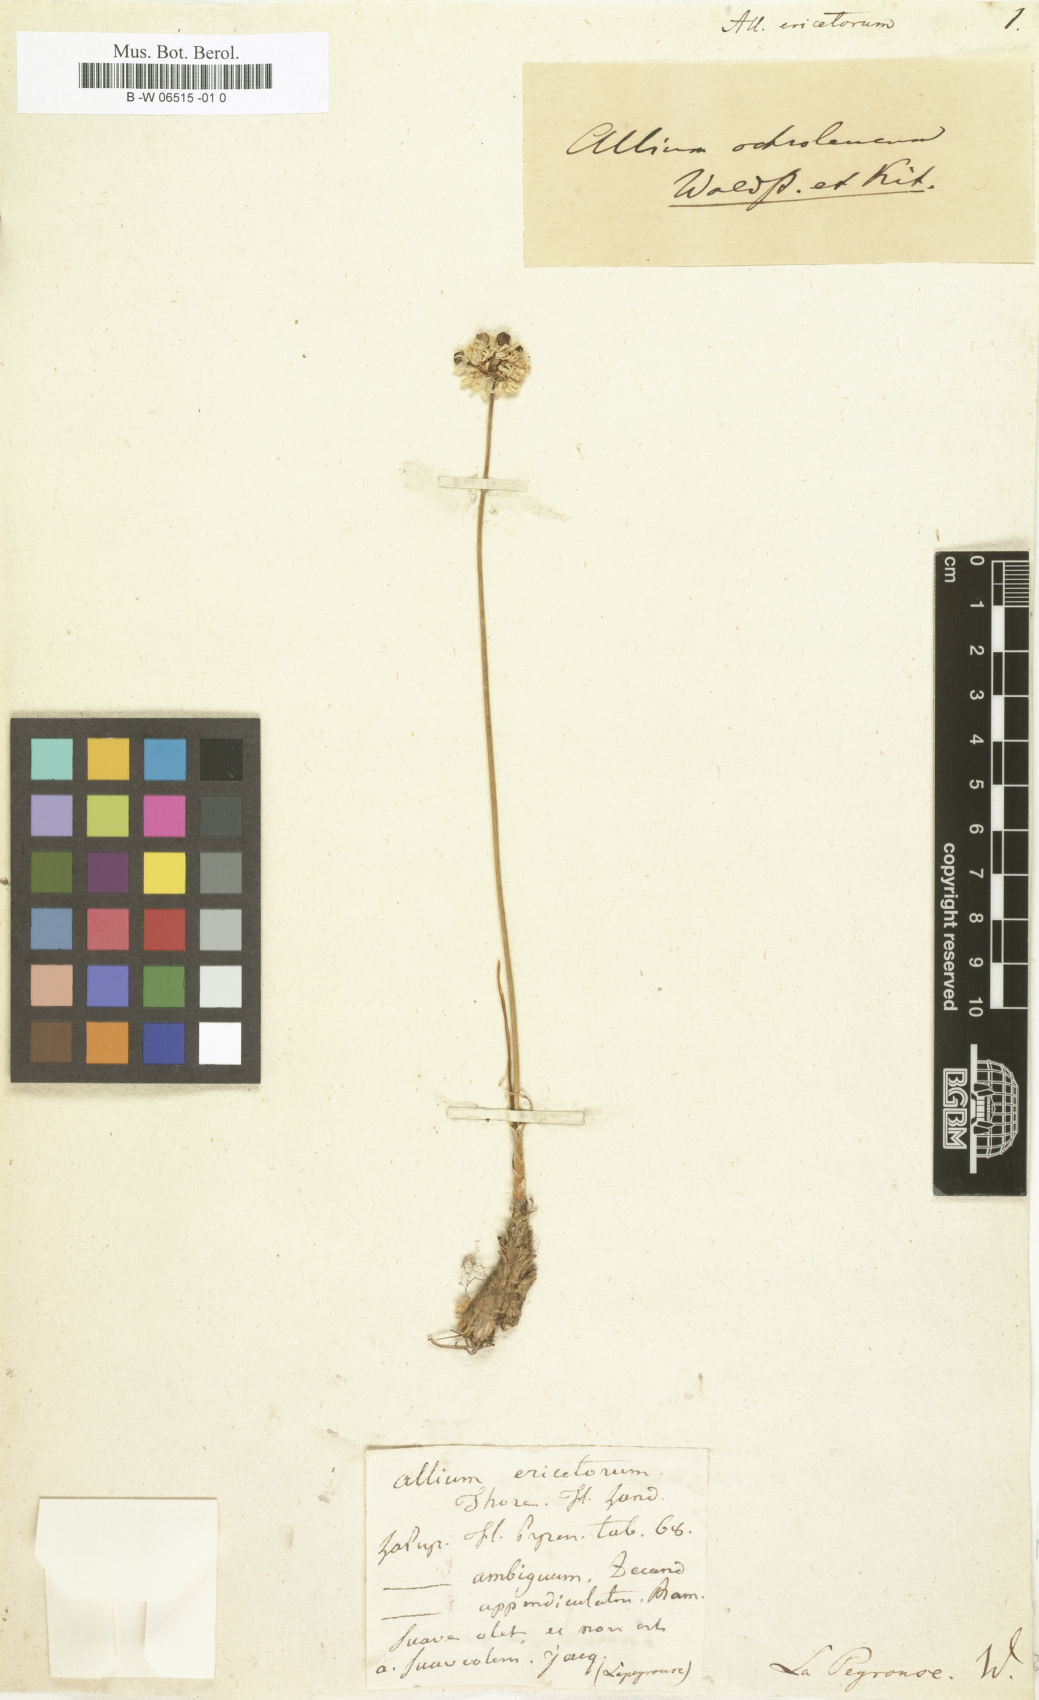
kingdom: Plantae
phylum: Tracheophyta
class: Liliopsida
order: Asparagales
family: Amaryllidaceae
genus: Allium
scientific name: Allium ericetorum
